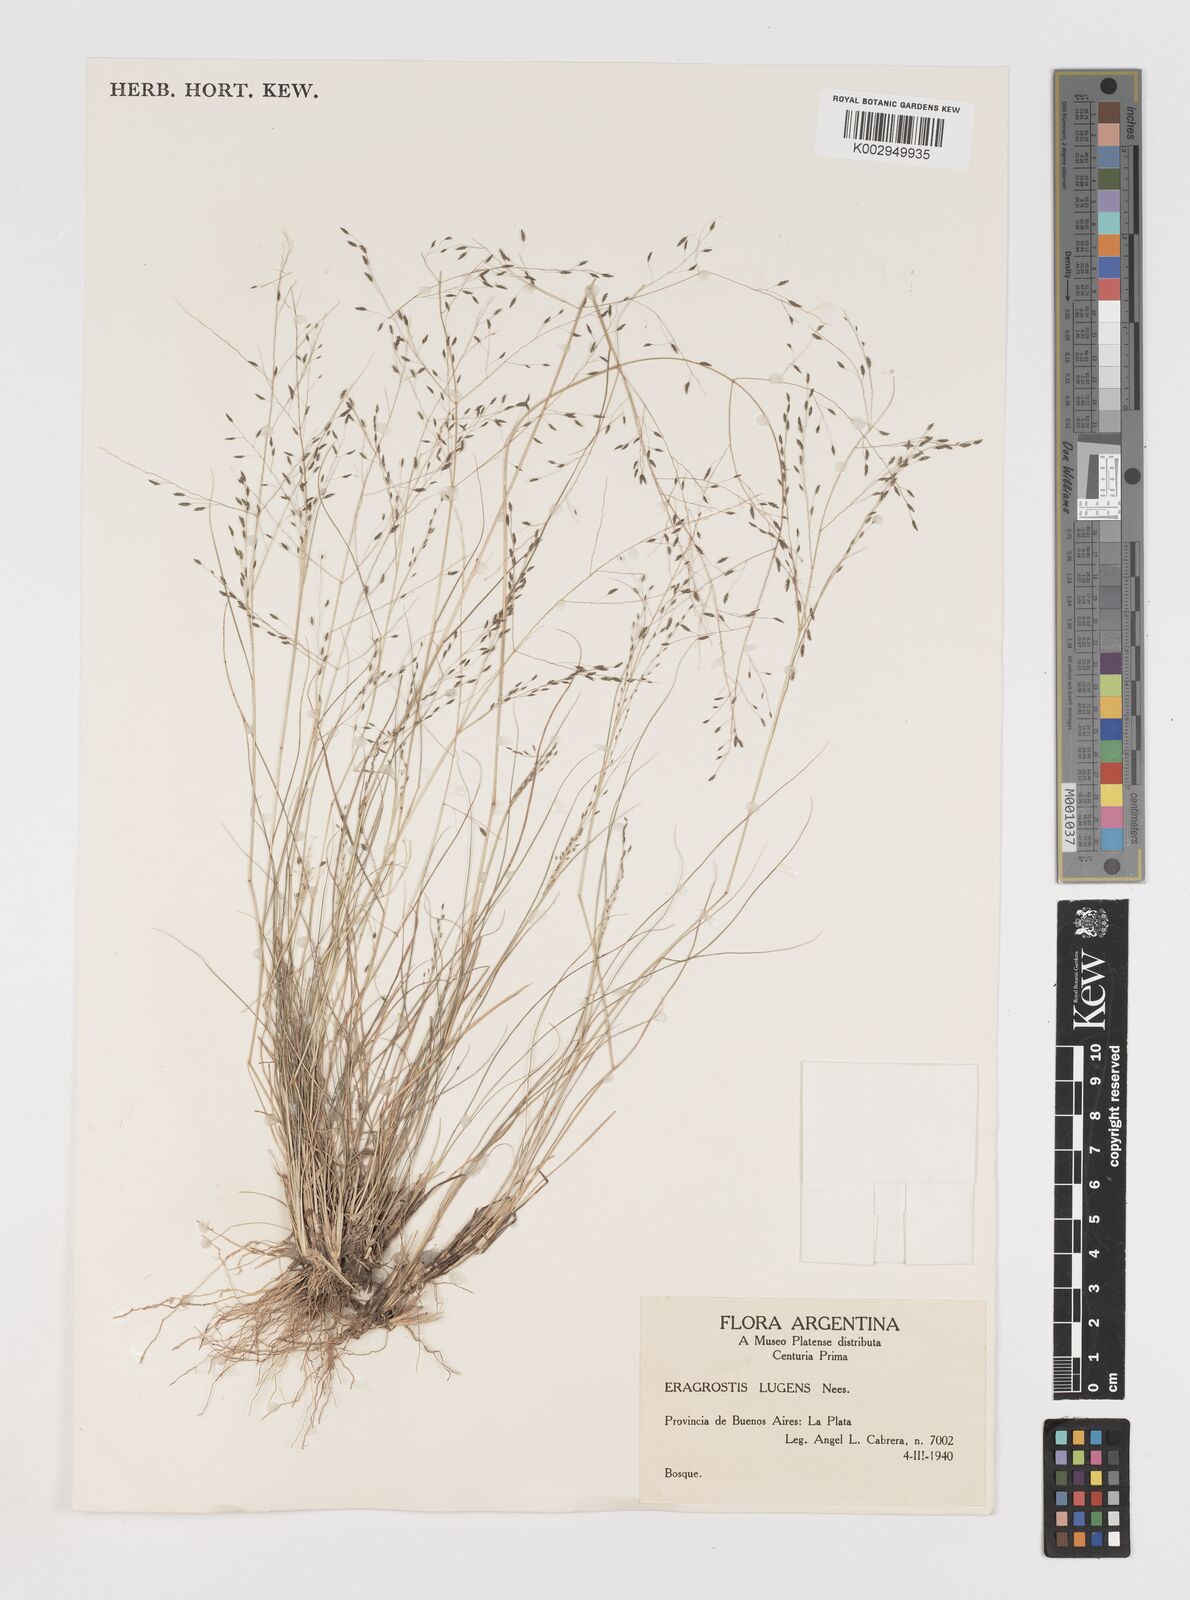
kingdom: Plantae
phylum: Tracheophyta
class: Liliopsida
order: Poales
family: Poaceae
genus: Eragrostis
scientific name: Eragrostis lugens
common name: Mourning love grass
